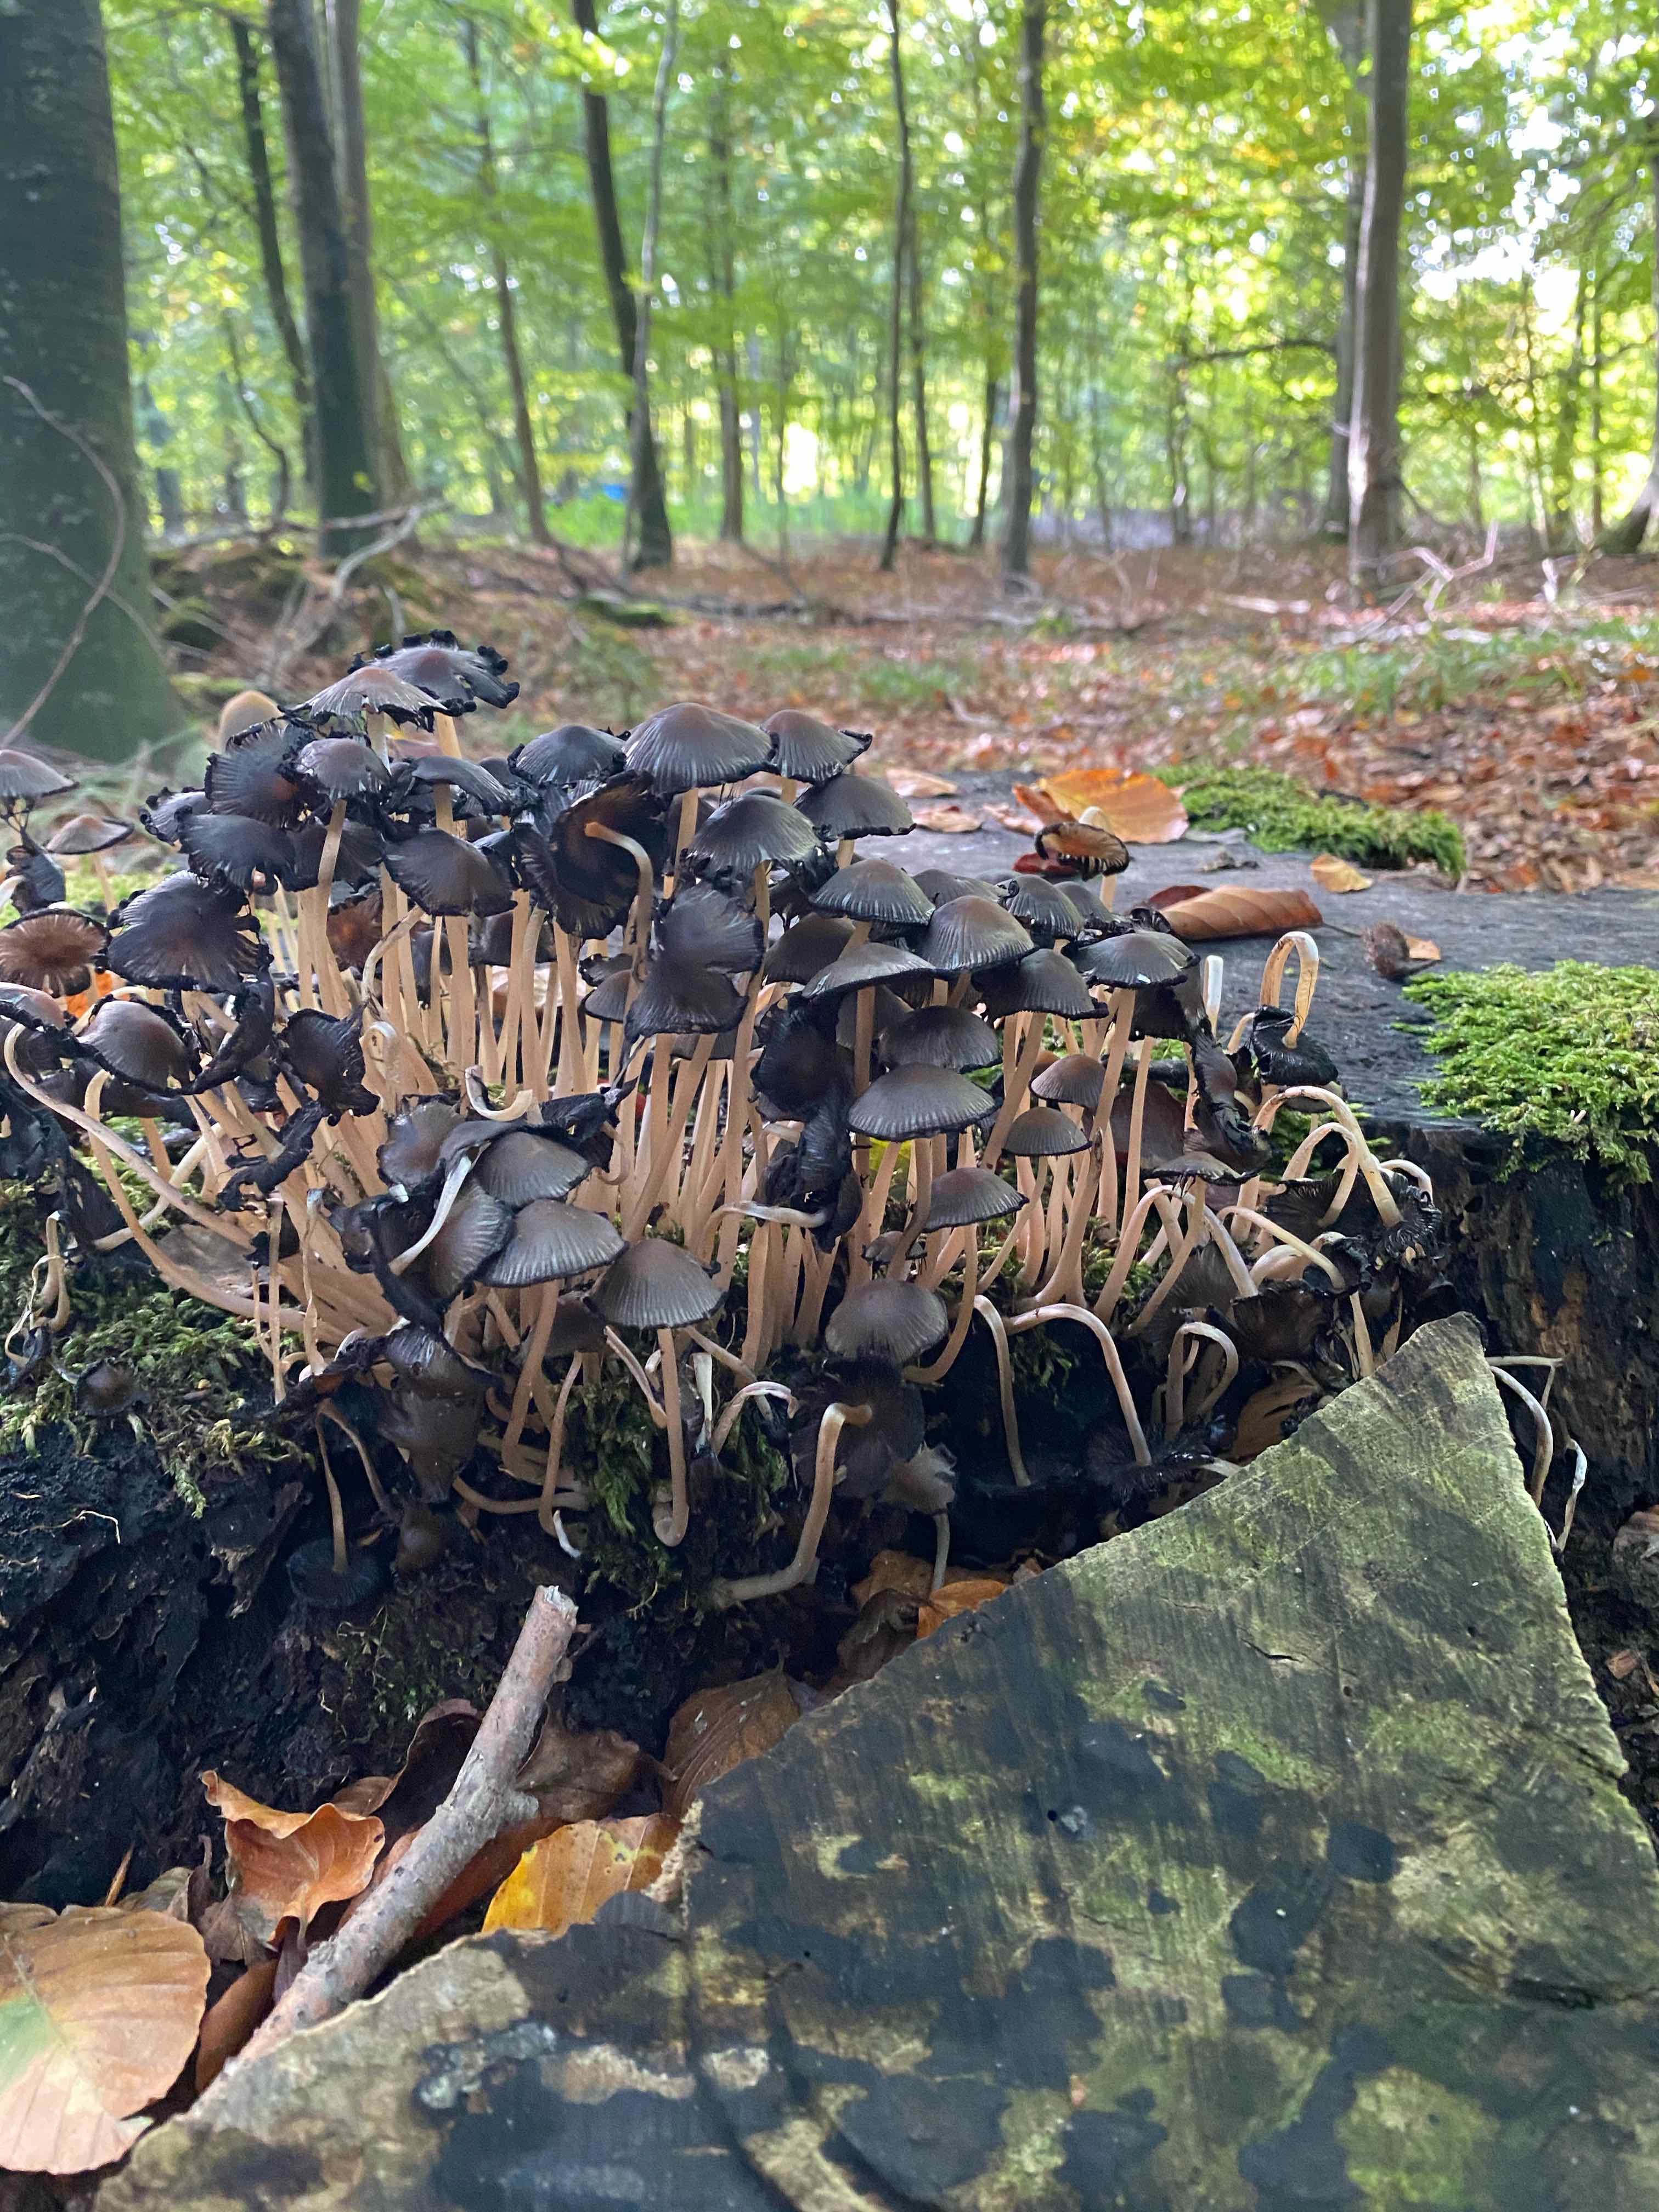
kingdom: Fungi
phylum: Basidiomycota
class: Agaricomycetes
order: Agaricales
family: Psathyrellaceae
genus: Coprinellus
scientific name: Coprinellus
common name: blækhat
